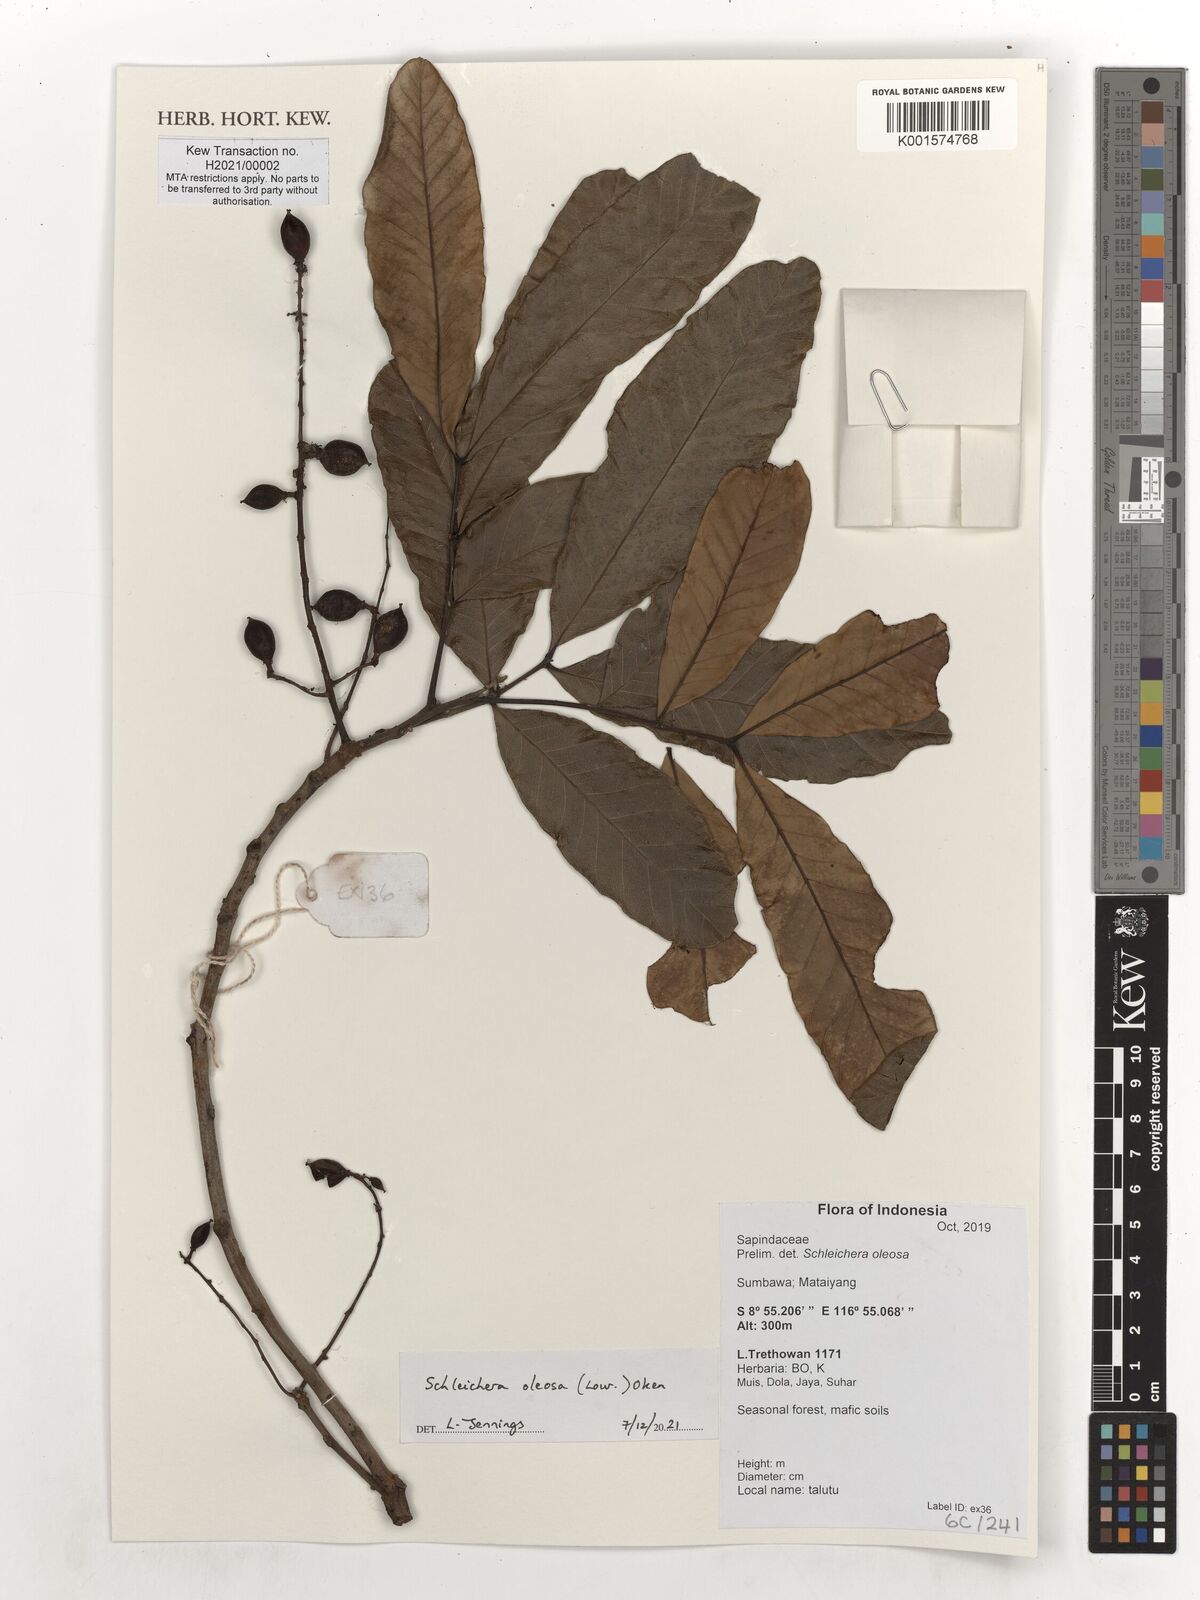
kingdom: Plantae
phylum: Tracheophyta
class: Magnoliopsida
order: Sapindales
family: Sapindaceae
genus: Schleichera
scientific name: Schleichera oleosa
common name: Malay lactree
